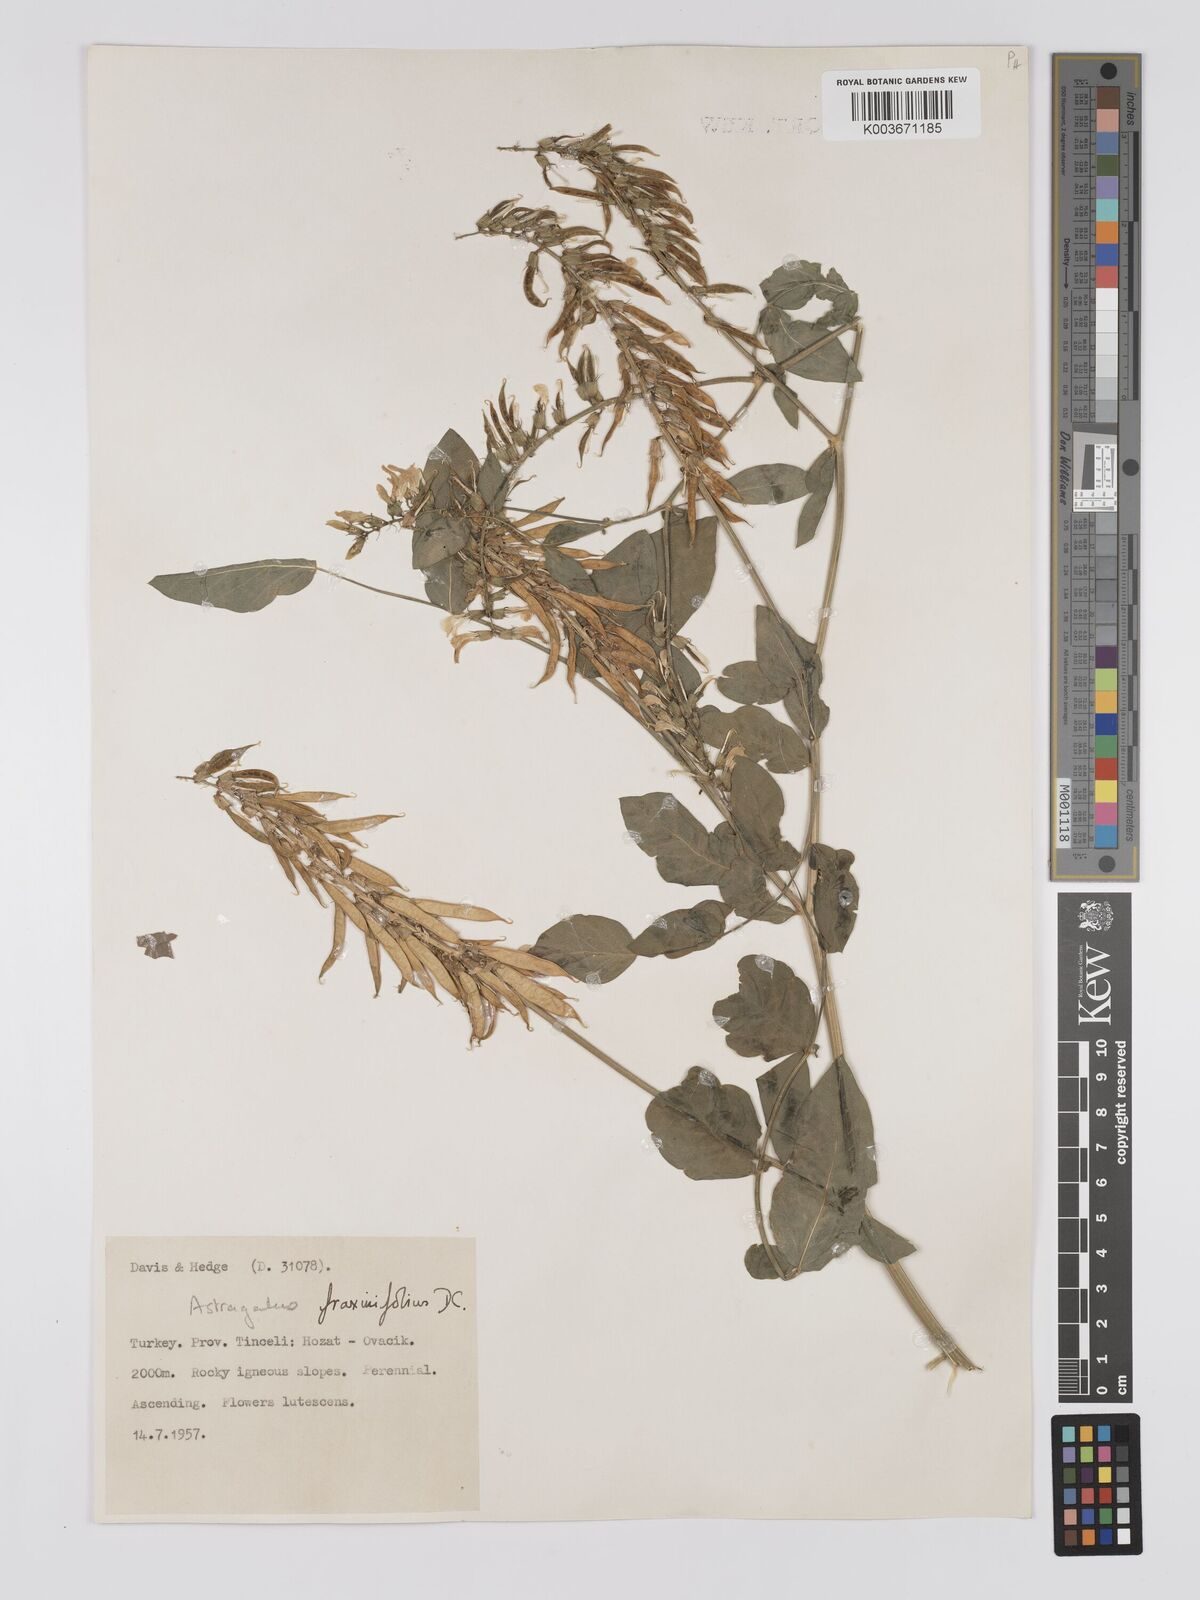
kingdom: Plantae
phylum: Tracheophyta
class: Magnoliopsida
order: Fabales
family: Fabaceae
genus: Astragalus
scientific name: Astragalus fraxinifolius
